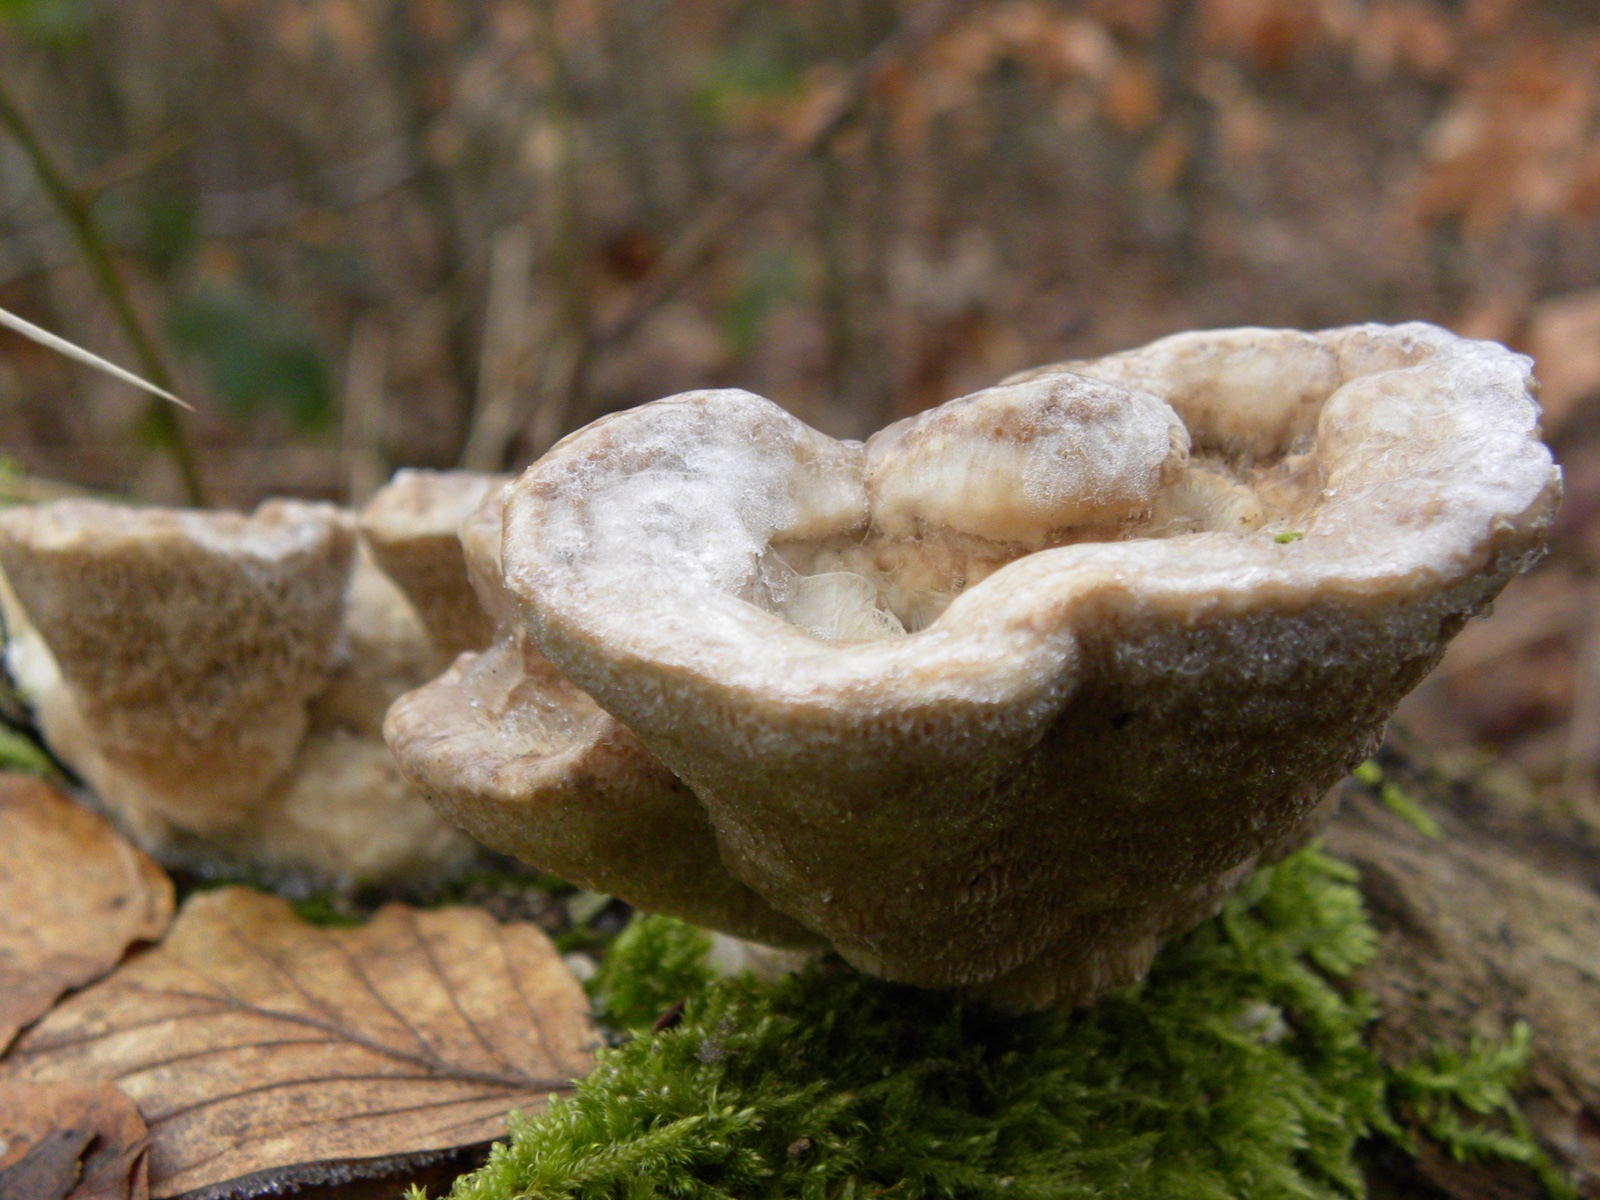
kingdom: Fungi
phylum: Basidiomycota
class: Agaricomycetes
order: Polyporales
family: Podoscyphaceae
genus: Abortiporus
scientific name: Abortiporus biennis
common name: rødmende pjalteporesvamp
